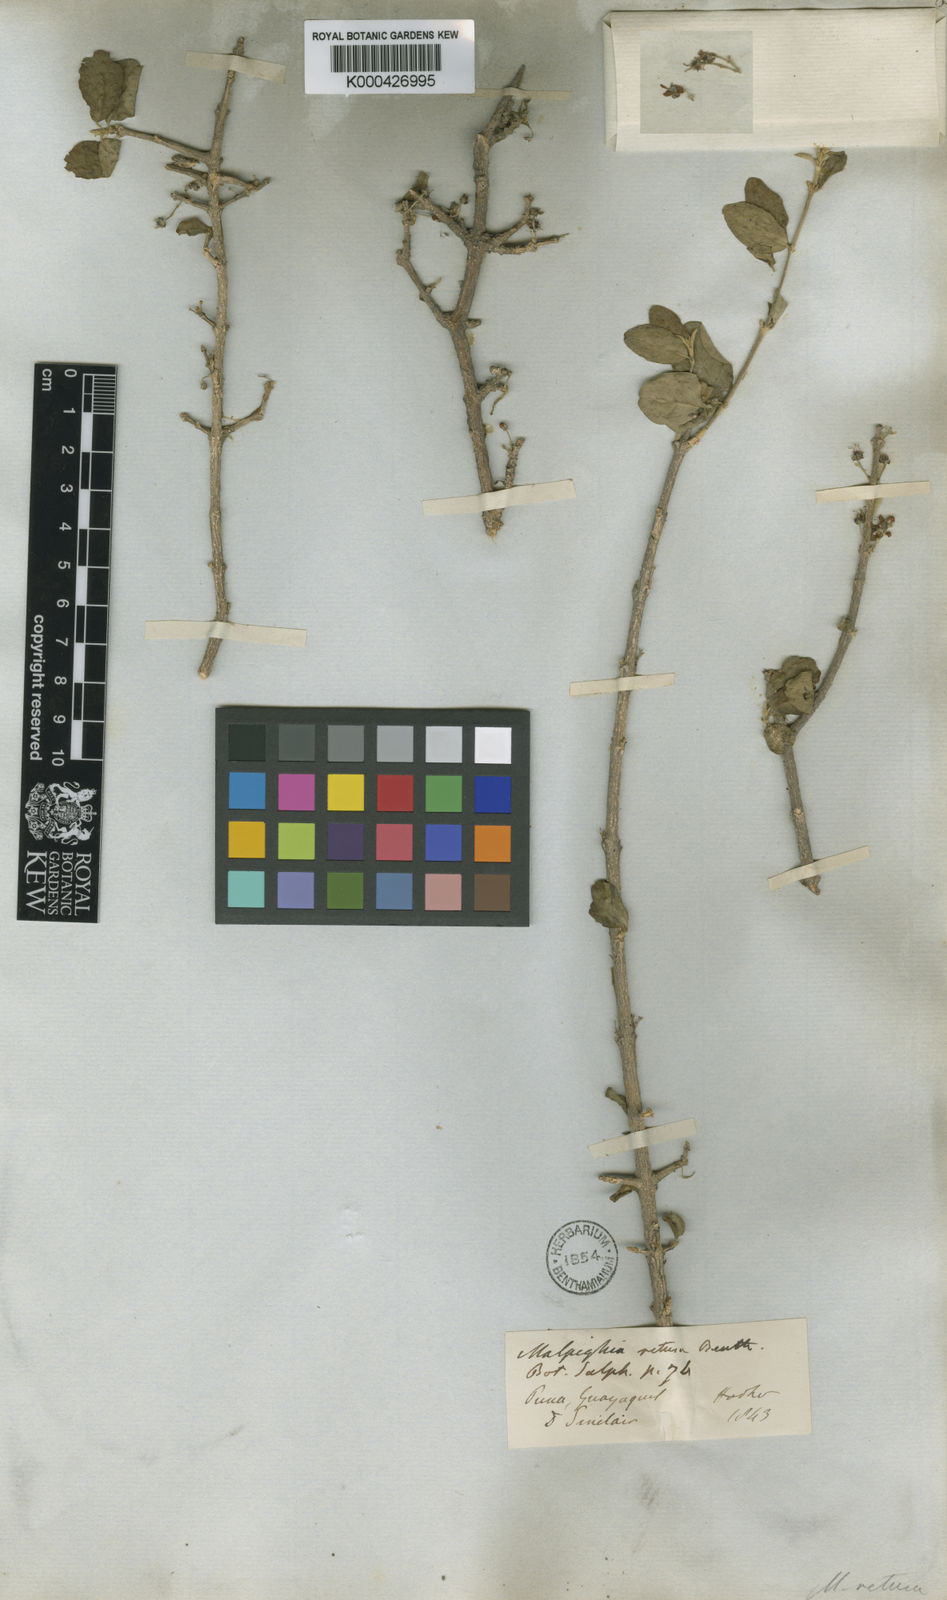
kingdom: Plantae
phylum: Tracheophyta
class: Magnoliopsida
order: Malpighiales
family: Malpighiaceae
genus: Malpighia
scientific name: Malpighia emarginata
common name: Barbados cherry
